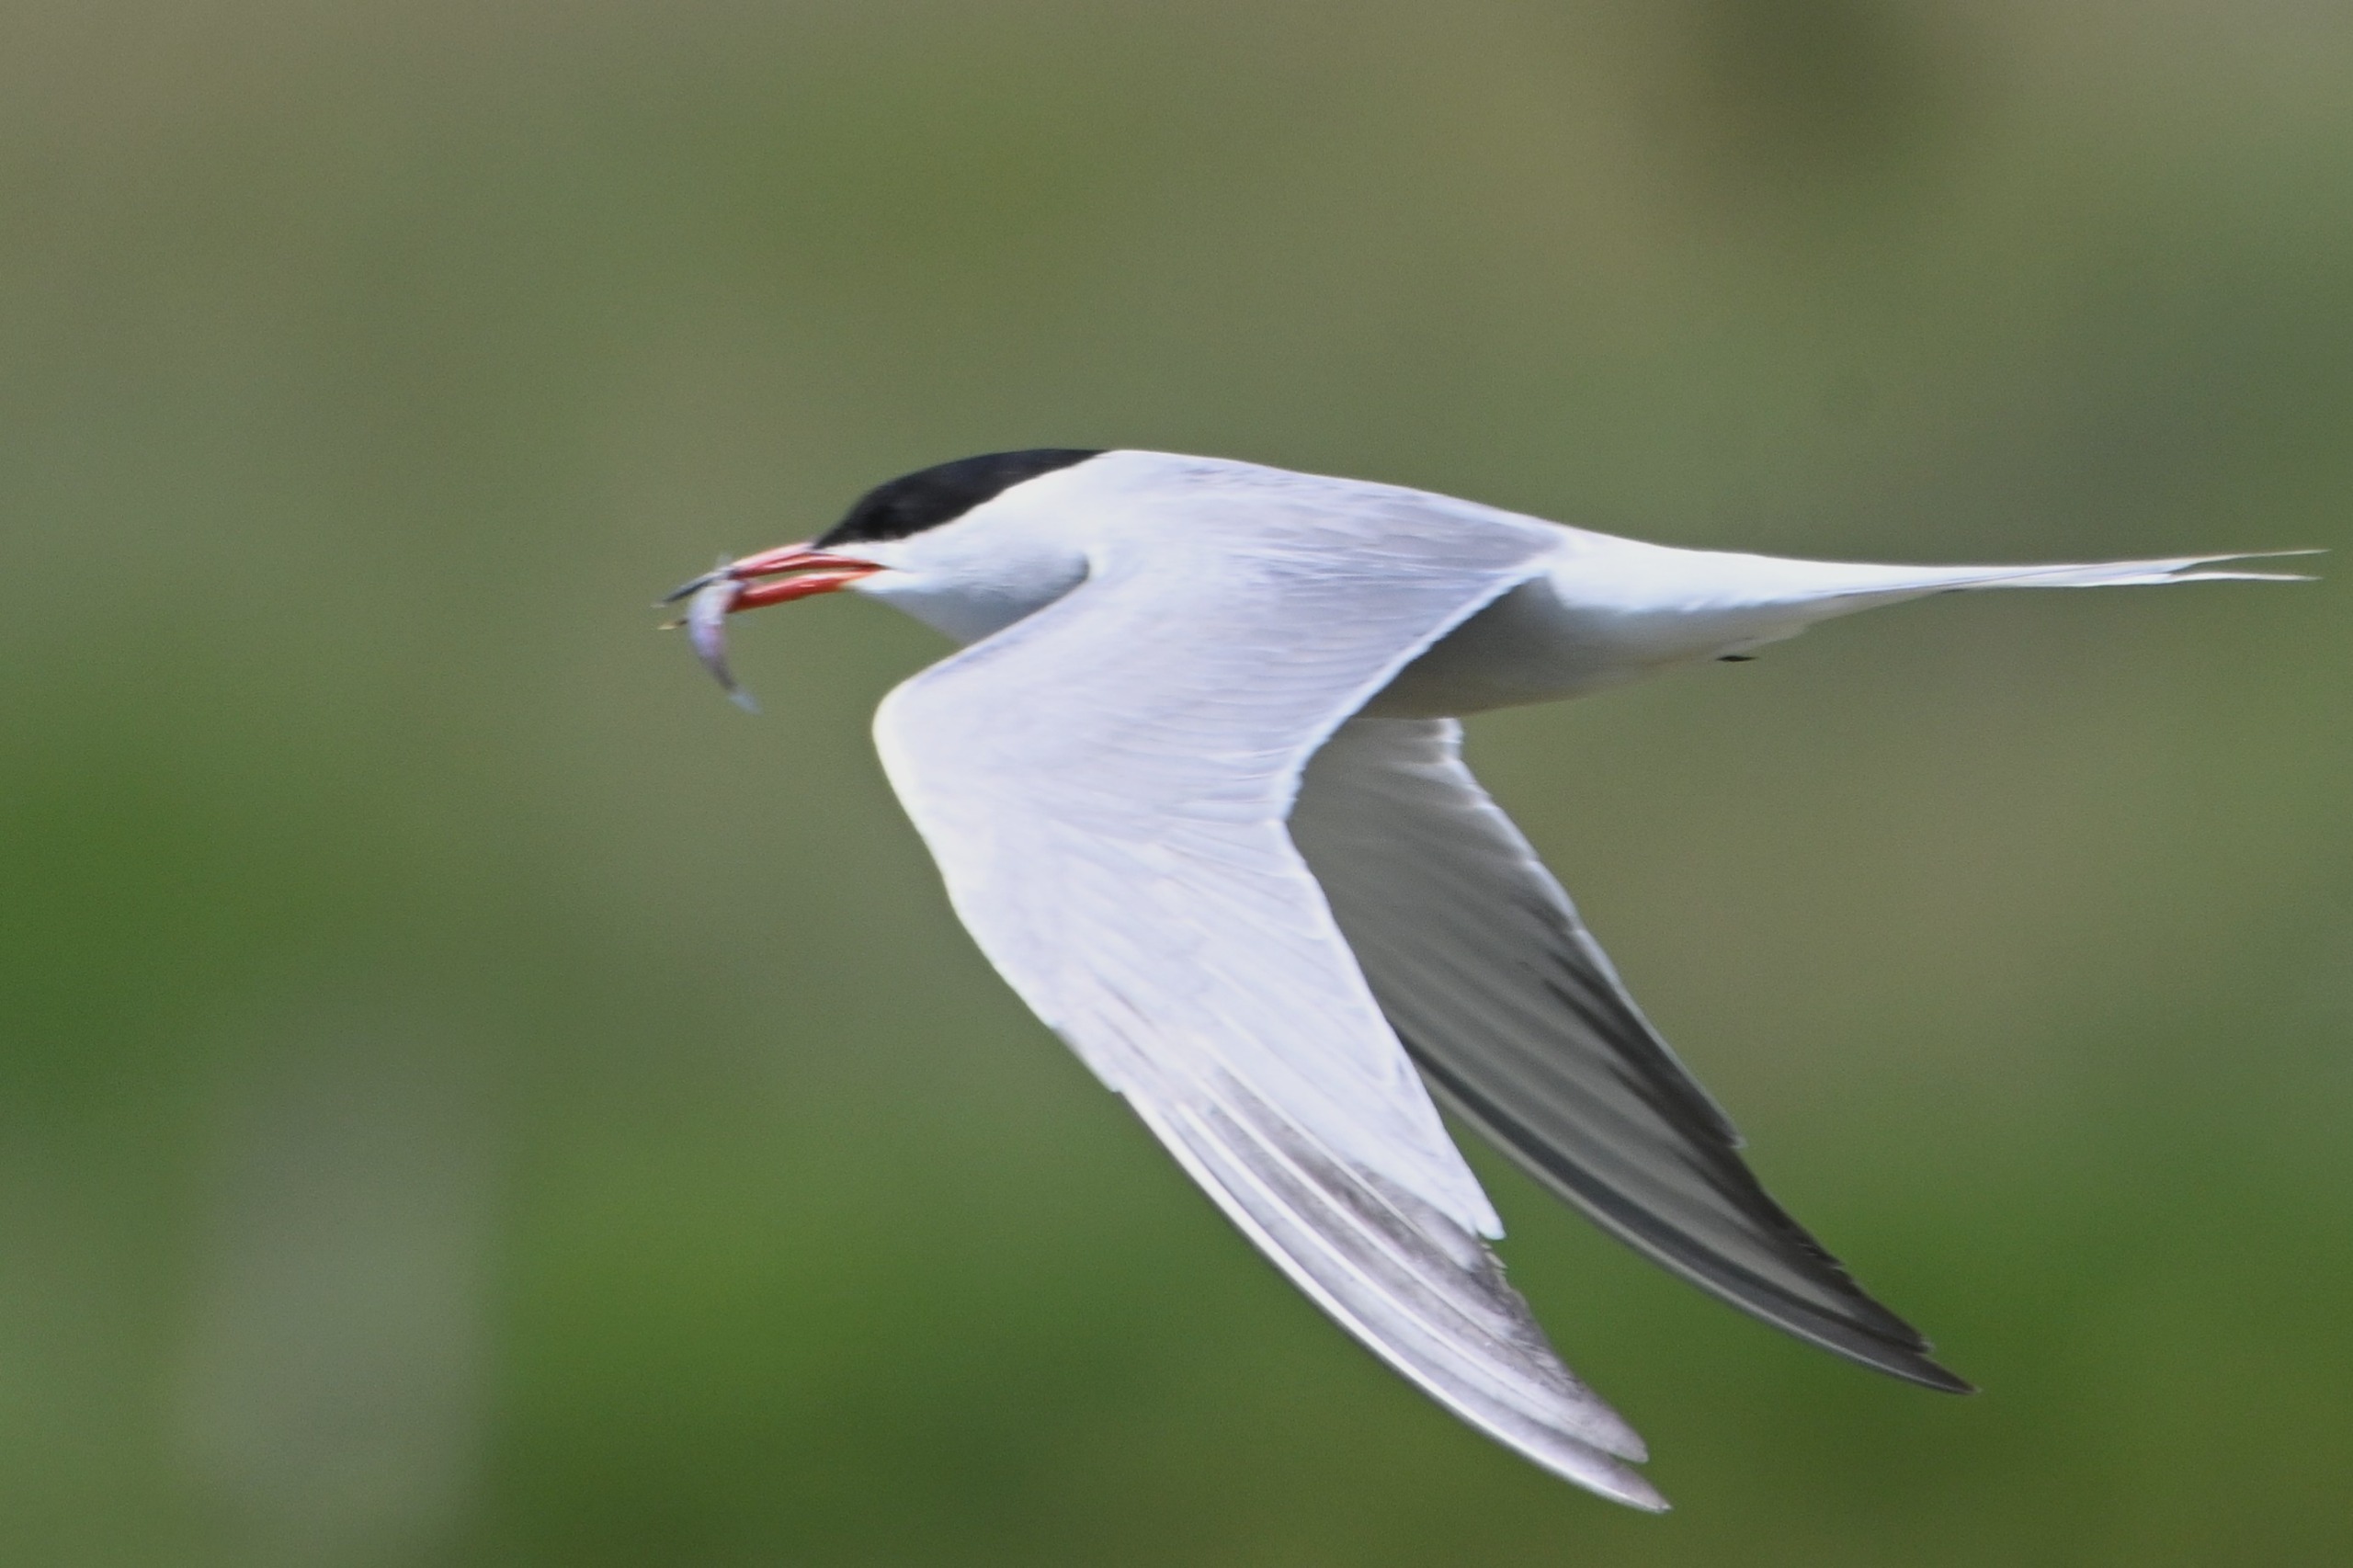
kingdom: Animalia
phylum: Chordata
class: Aves
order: Charadriiformes
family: Laridae
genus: Sterna
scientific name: Sterna hirundo
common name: Fjordterne
